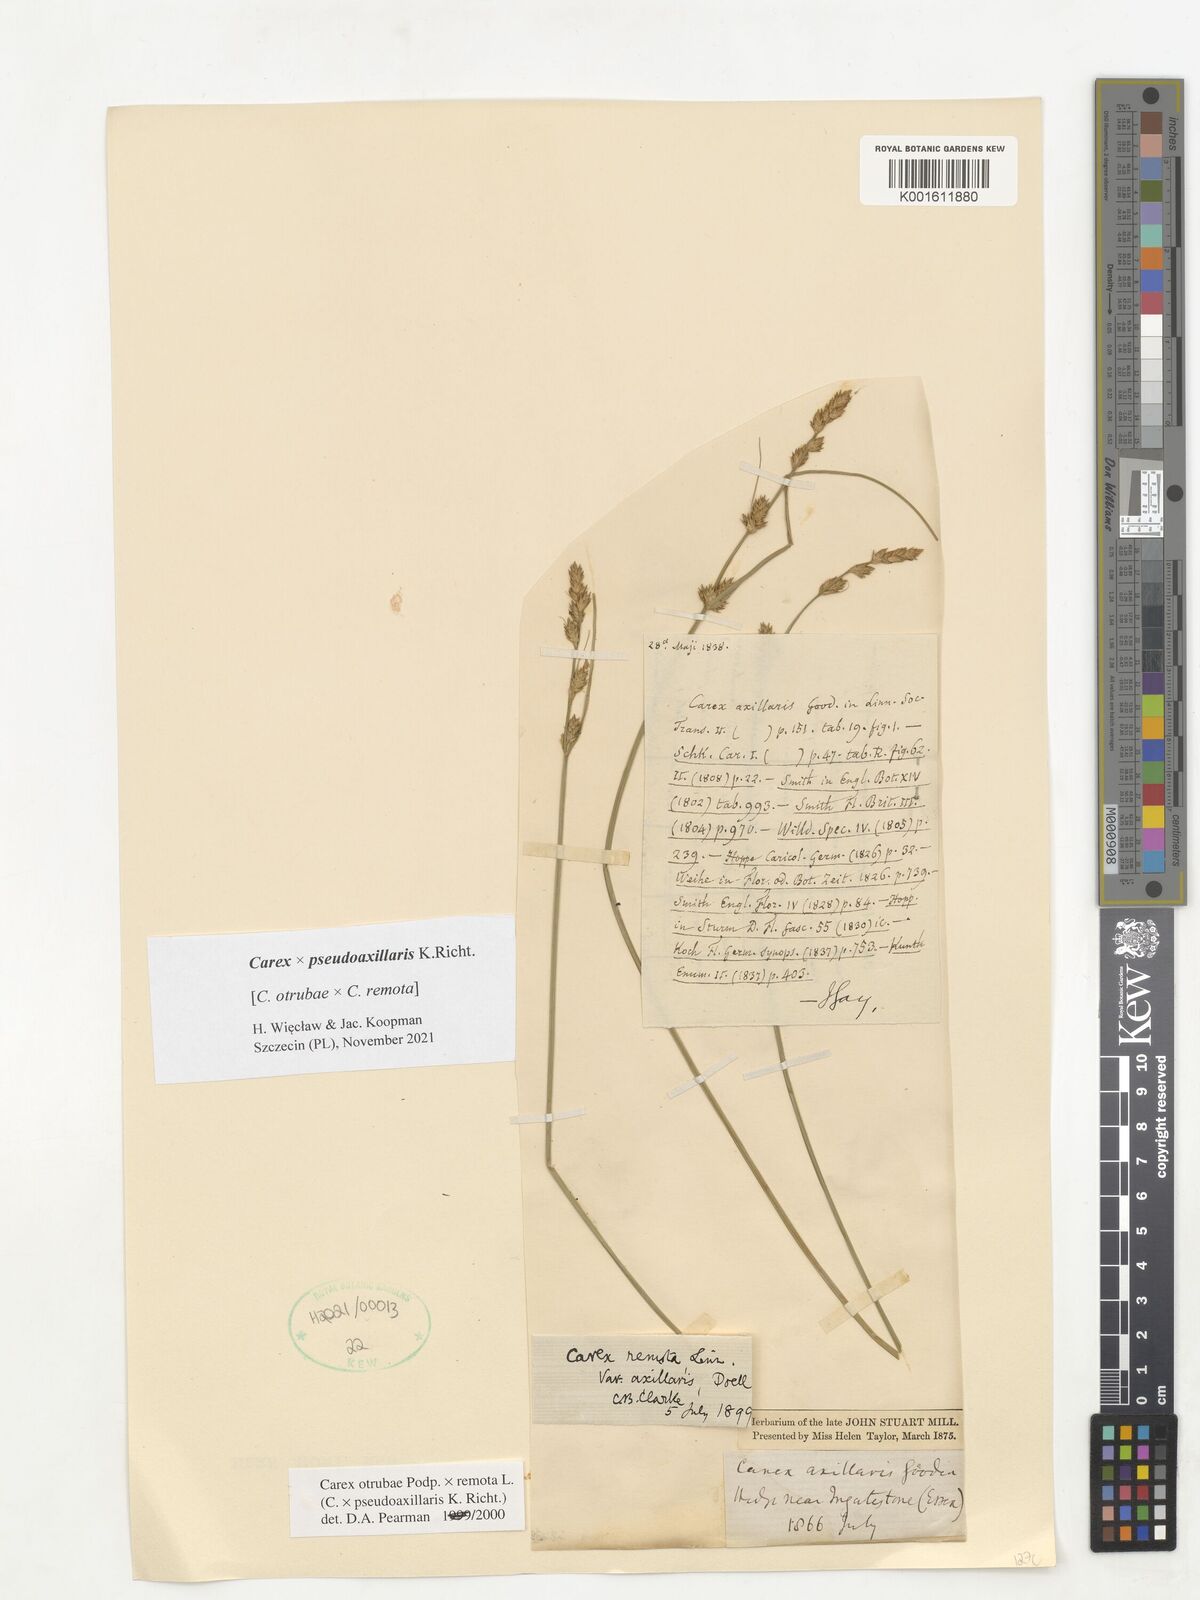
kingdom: Plantae
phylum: Tracheophyta
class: Liliopsida
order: Poales
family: Cyperaceae
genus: Carex
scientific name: Carex pseudoaxillaris
